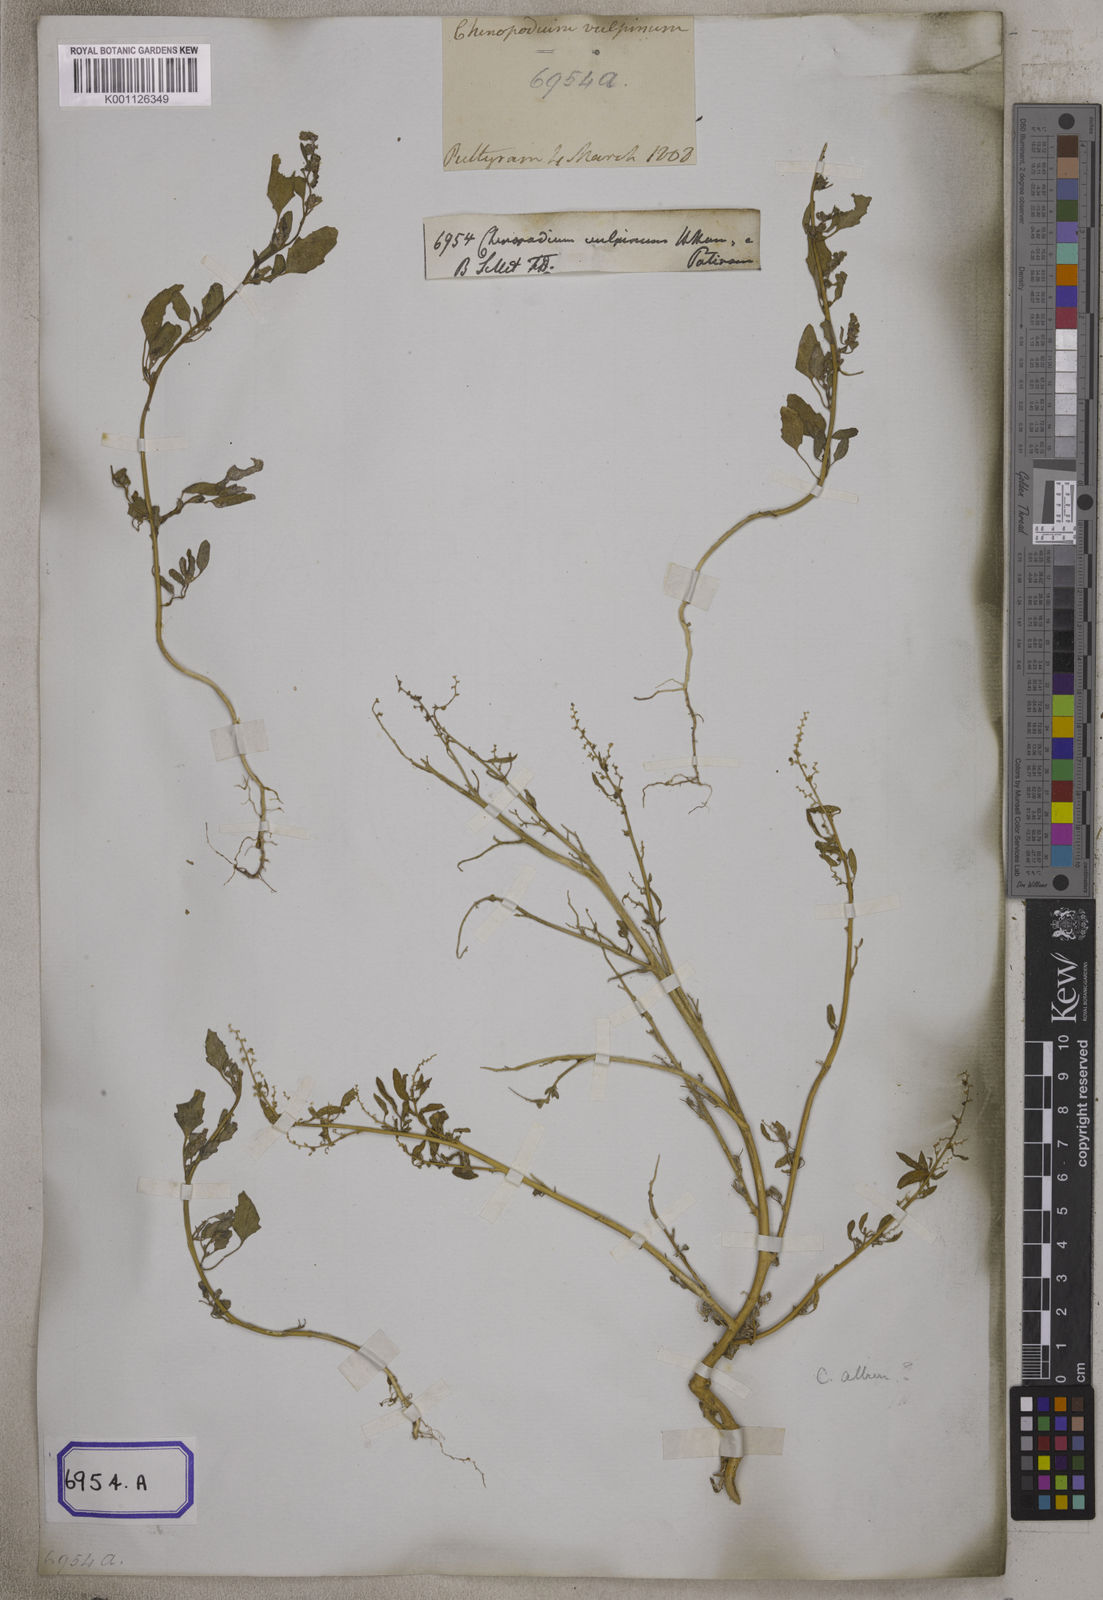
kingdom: Plantae
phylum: Tracheophyta
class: Magnoliopsida
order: Caryophyllales
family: Amaranthaceae
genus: Chenopodium
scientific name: Chenopodium album
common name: Fat-hen
